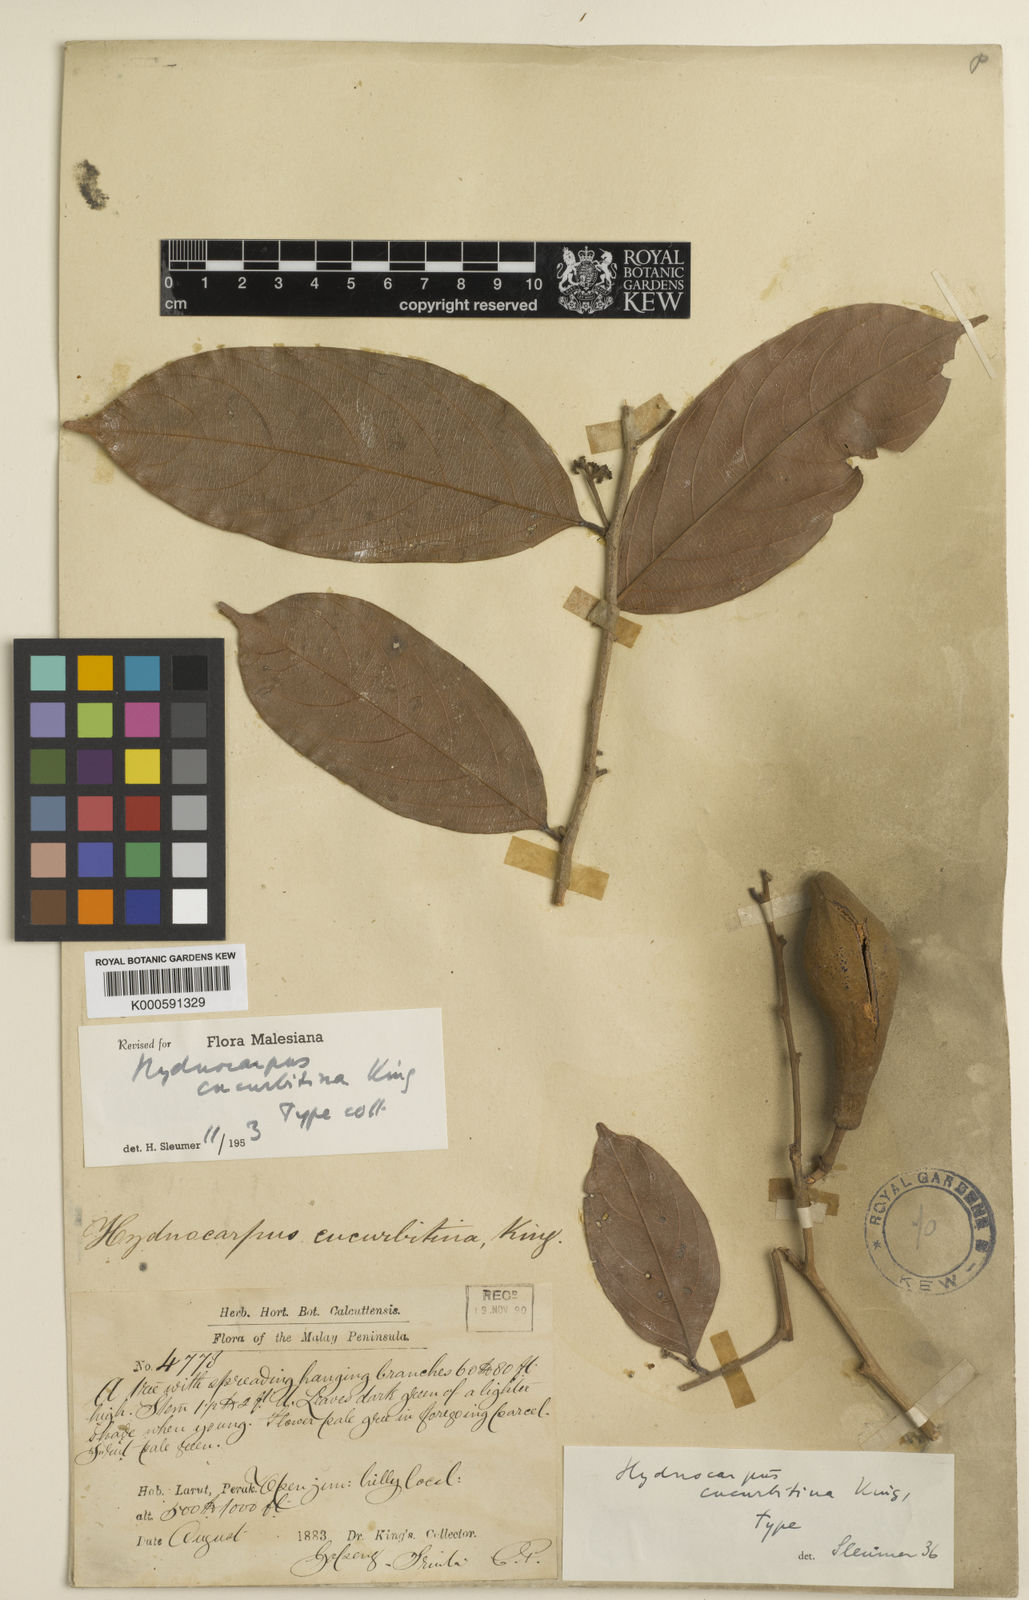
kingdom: Plantae
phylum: Tracheophyta
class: Magnoliopsida
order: Malpighiales
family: Achariaceae
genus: Hydnocarpus
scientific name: Hydnocarpus cucurbitinus
